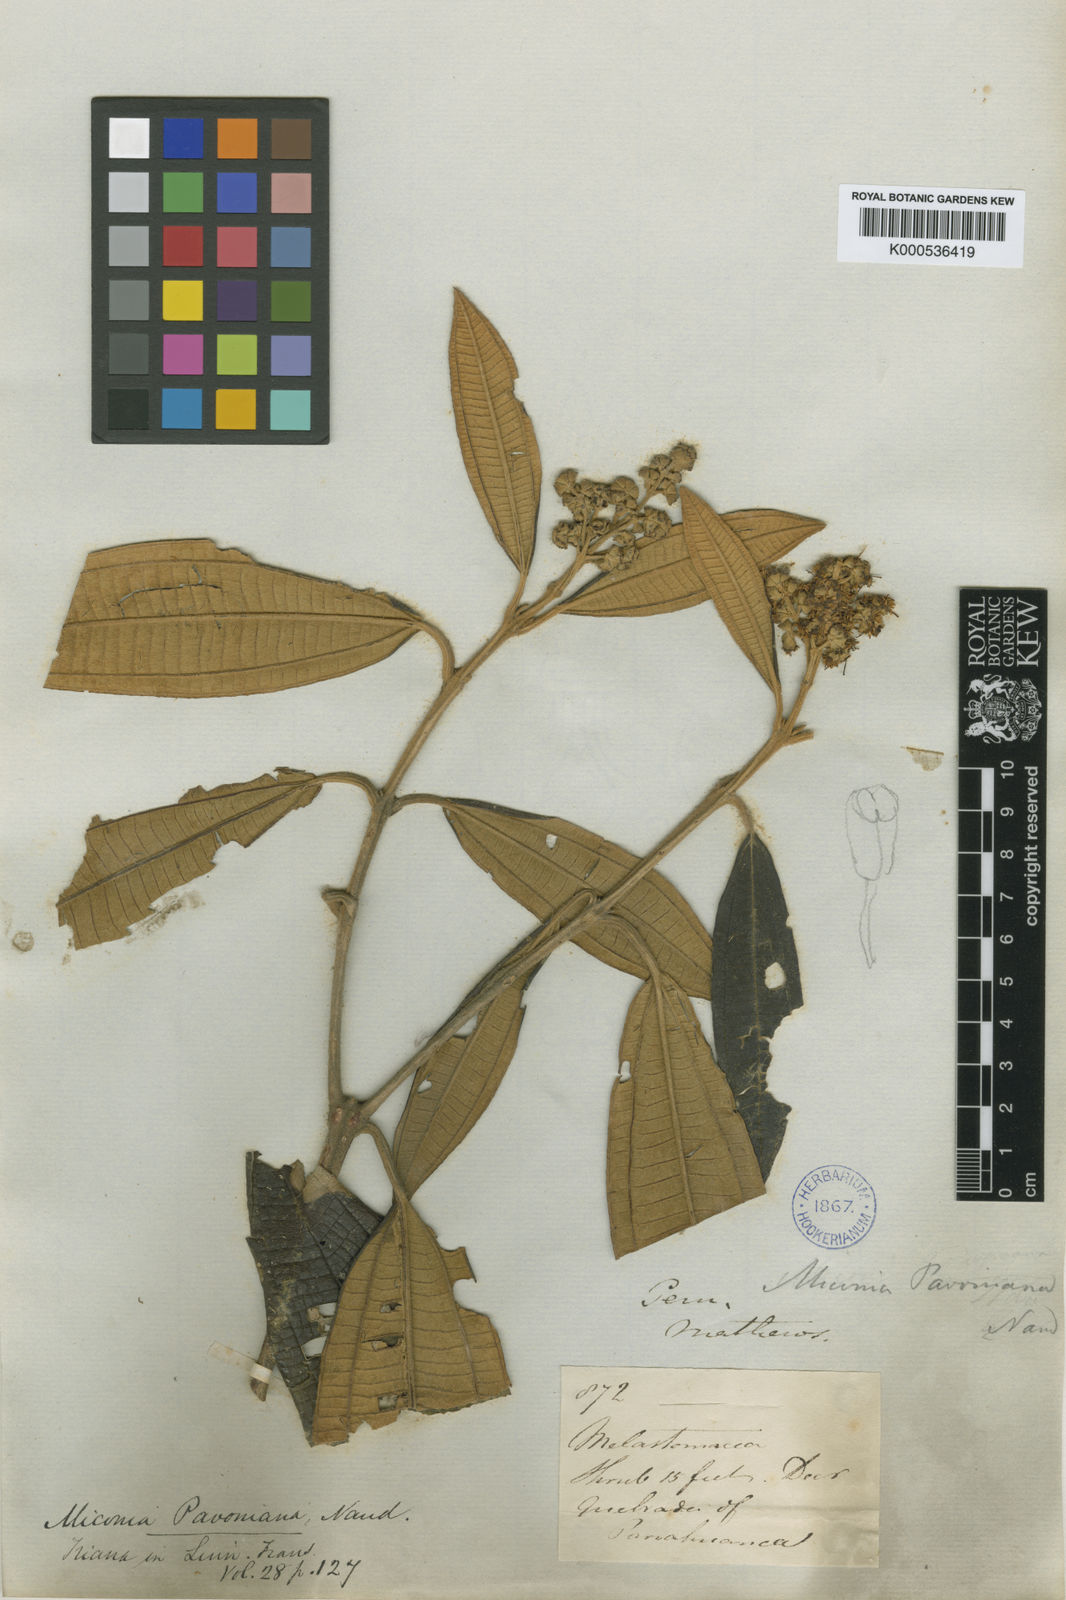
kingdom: Plantae
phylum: Tracheophyta
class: Magnoliopsida
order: Myrtales
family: Melastomataceae
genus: Miconia
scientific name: Miconia pavoniana
